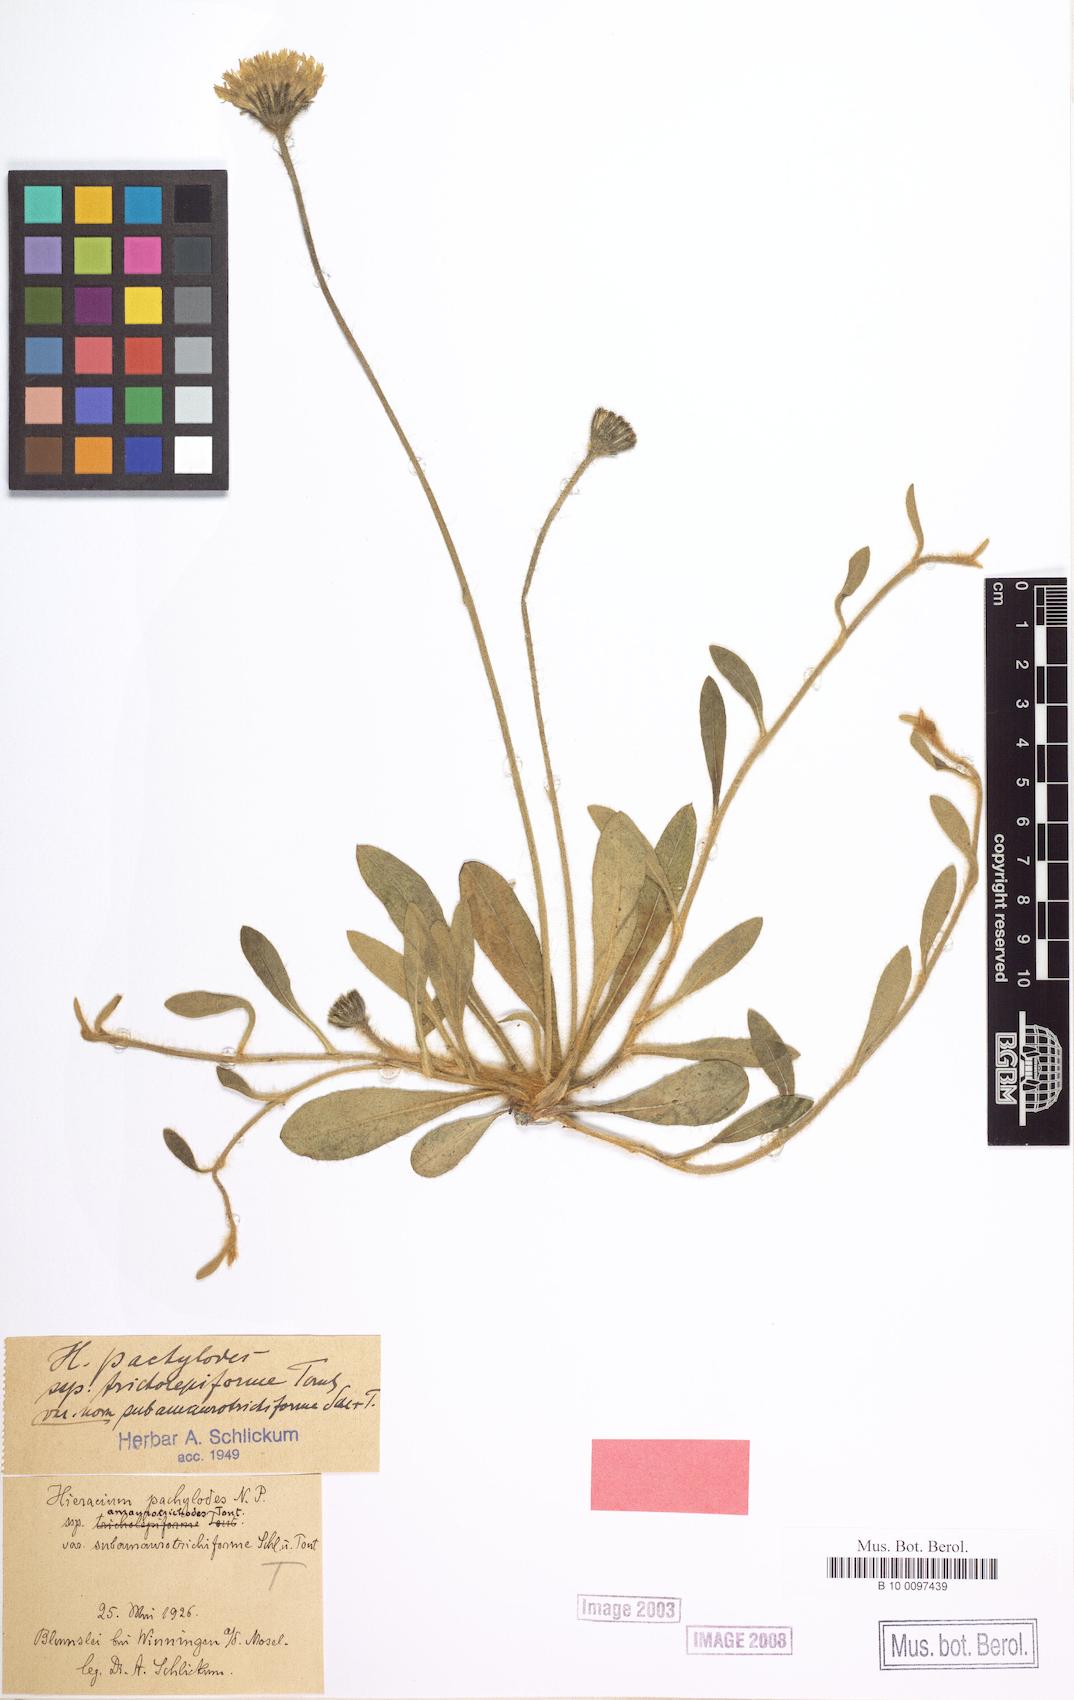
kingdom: Plantae
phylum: Tracheophyta
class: Magnoliopsida
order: Asterales
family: Asteraceae
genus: Pilosella
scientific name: Pilosella longisquama
